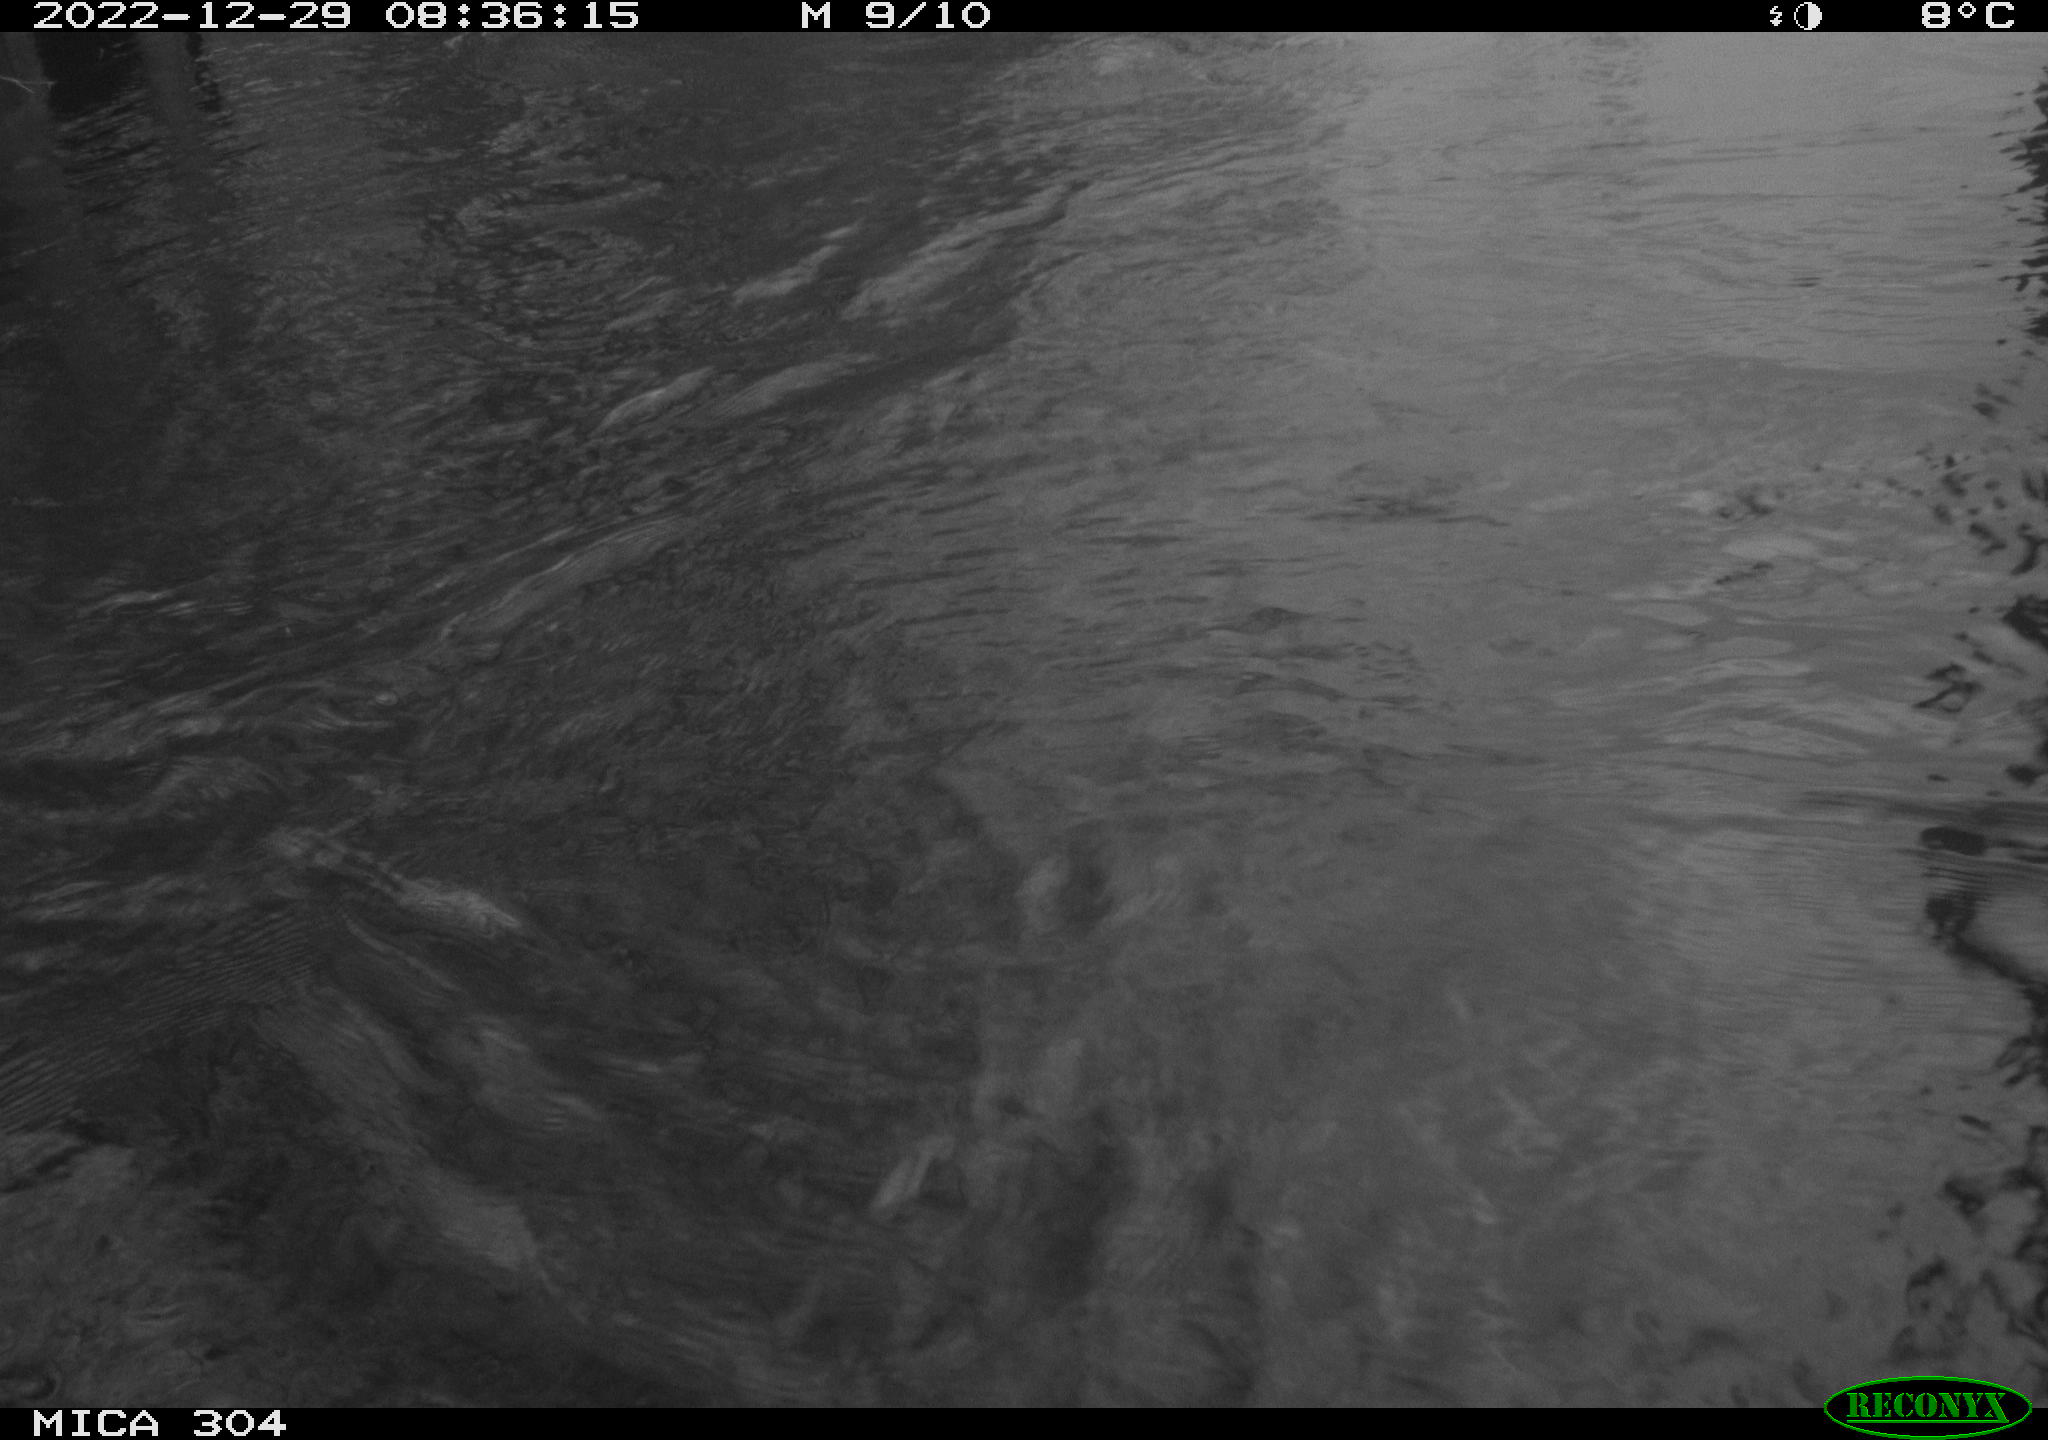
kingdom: Animalia
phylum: Chordata
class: Aves
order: Gruiformes
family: Rallidae
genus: Fulica
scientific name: Fulica atra
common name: Eurasian coot
